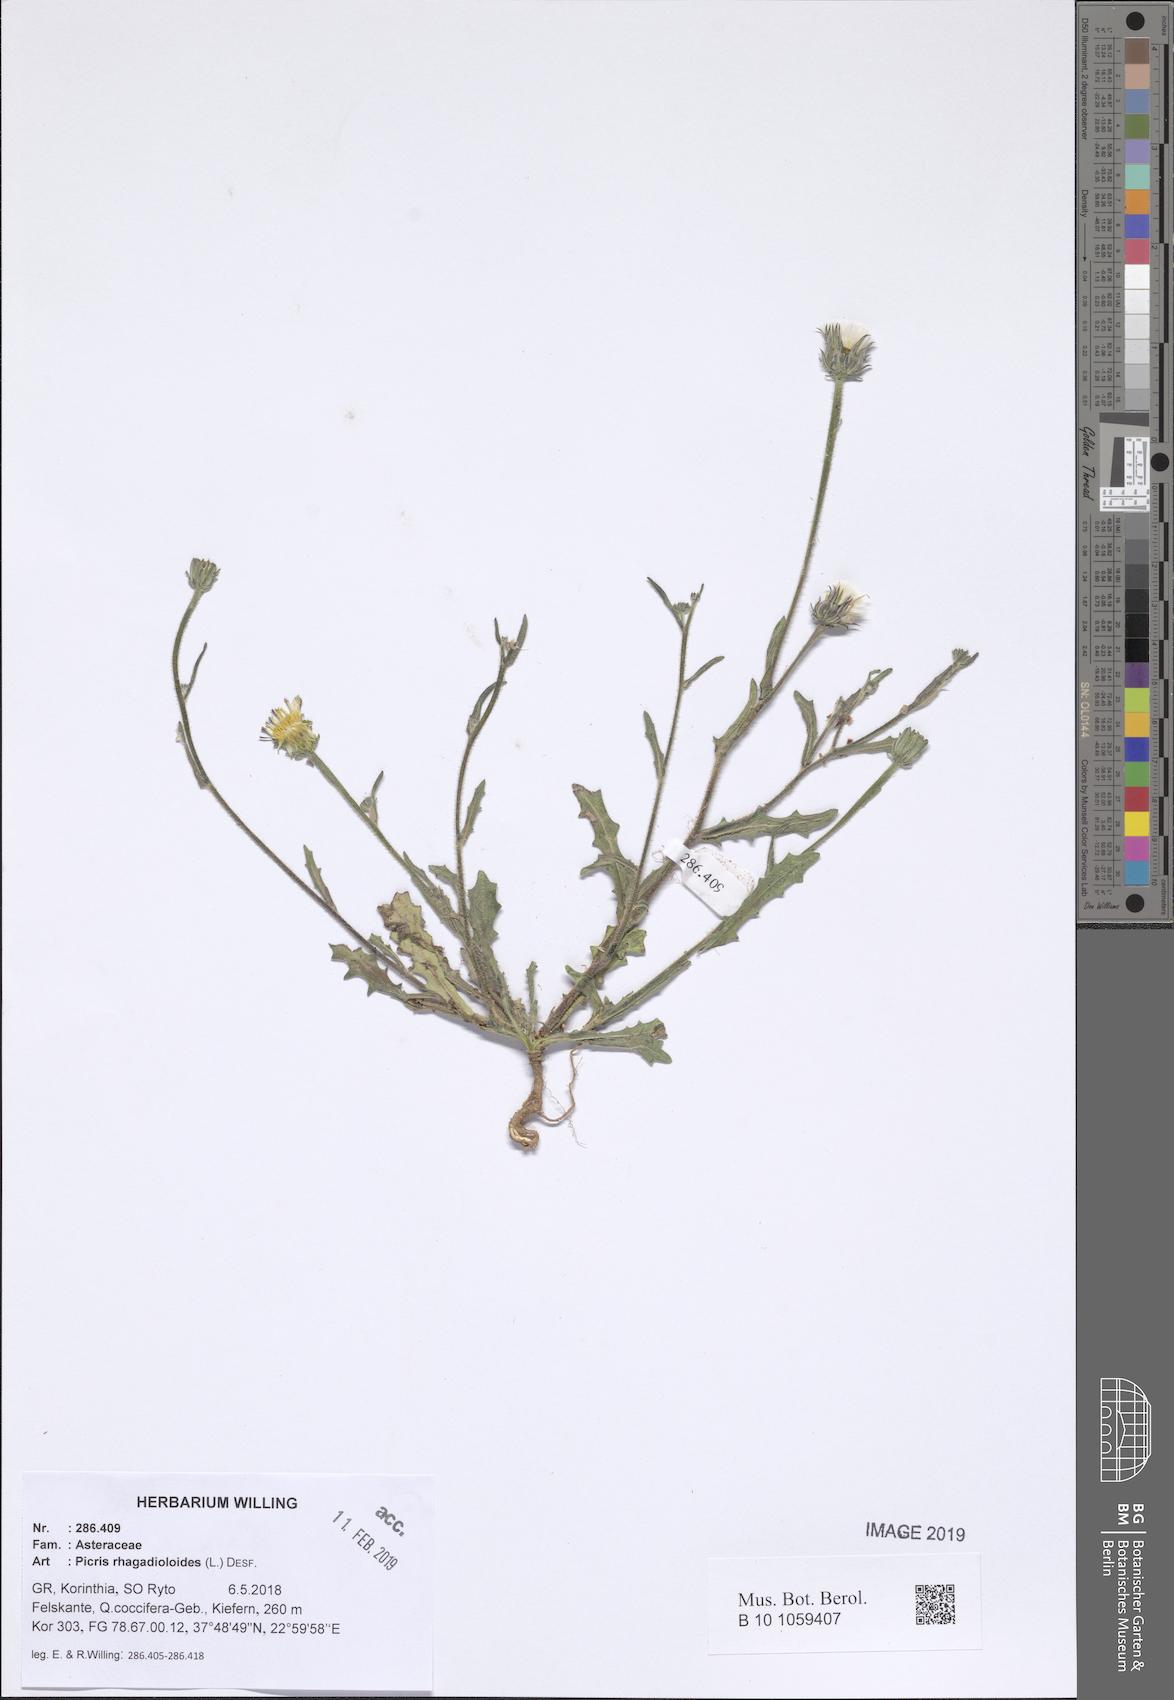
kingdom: Plantae
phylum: Tracheophyta
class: Magnoliopsida
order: Asterales
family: Asteraceae
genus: Picris
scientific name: Picris rhagadioloides
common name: Oxtongue
